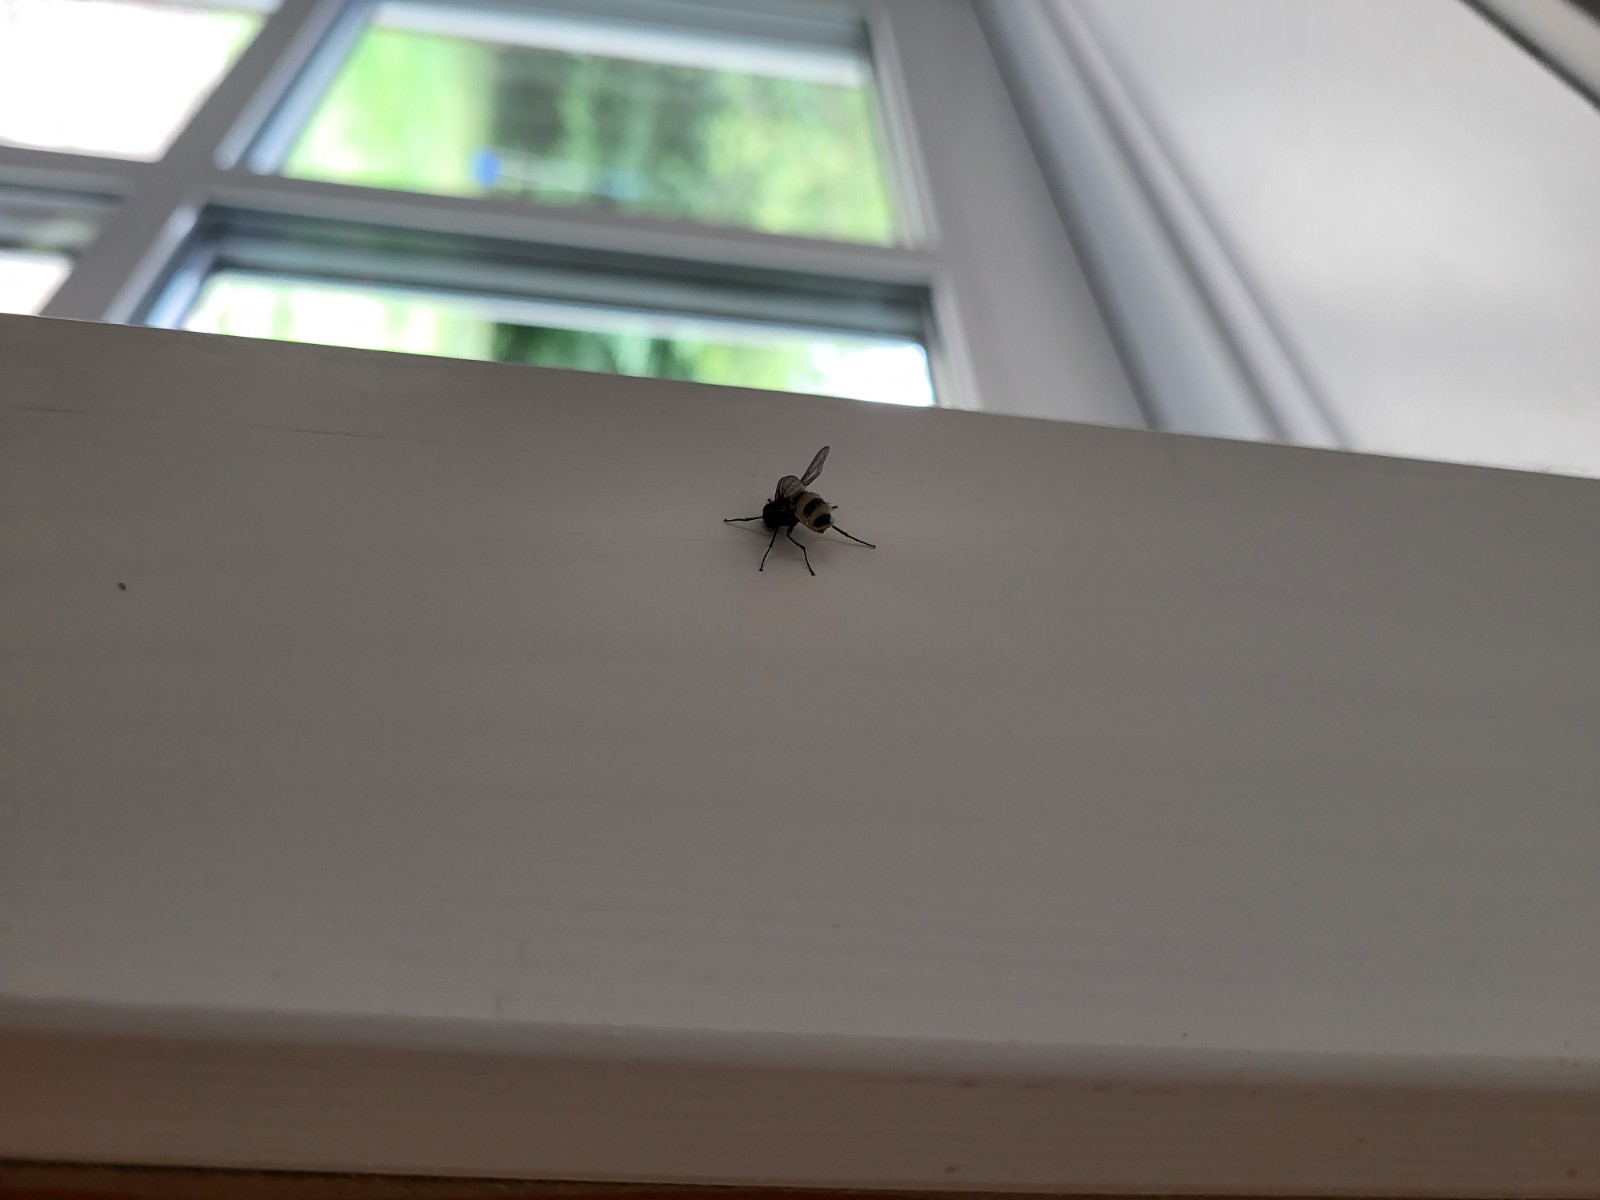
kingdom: Fungi
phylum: Entomophthoromycota
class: Entomophthoromycetes
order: Entomophthorales
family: Entomophthoraceae
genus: Entomophthora
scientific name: Entomophthora muscae
